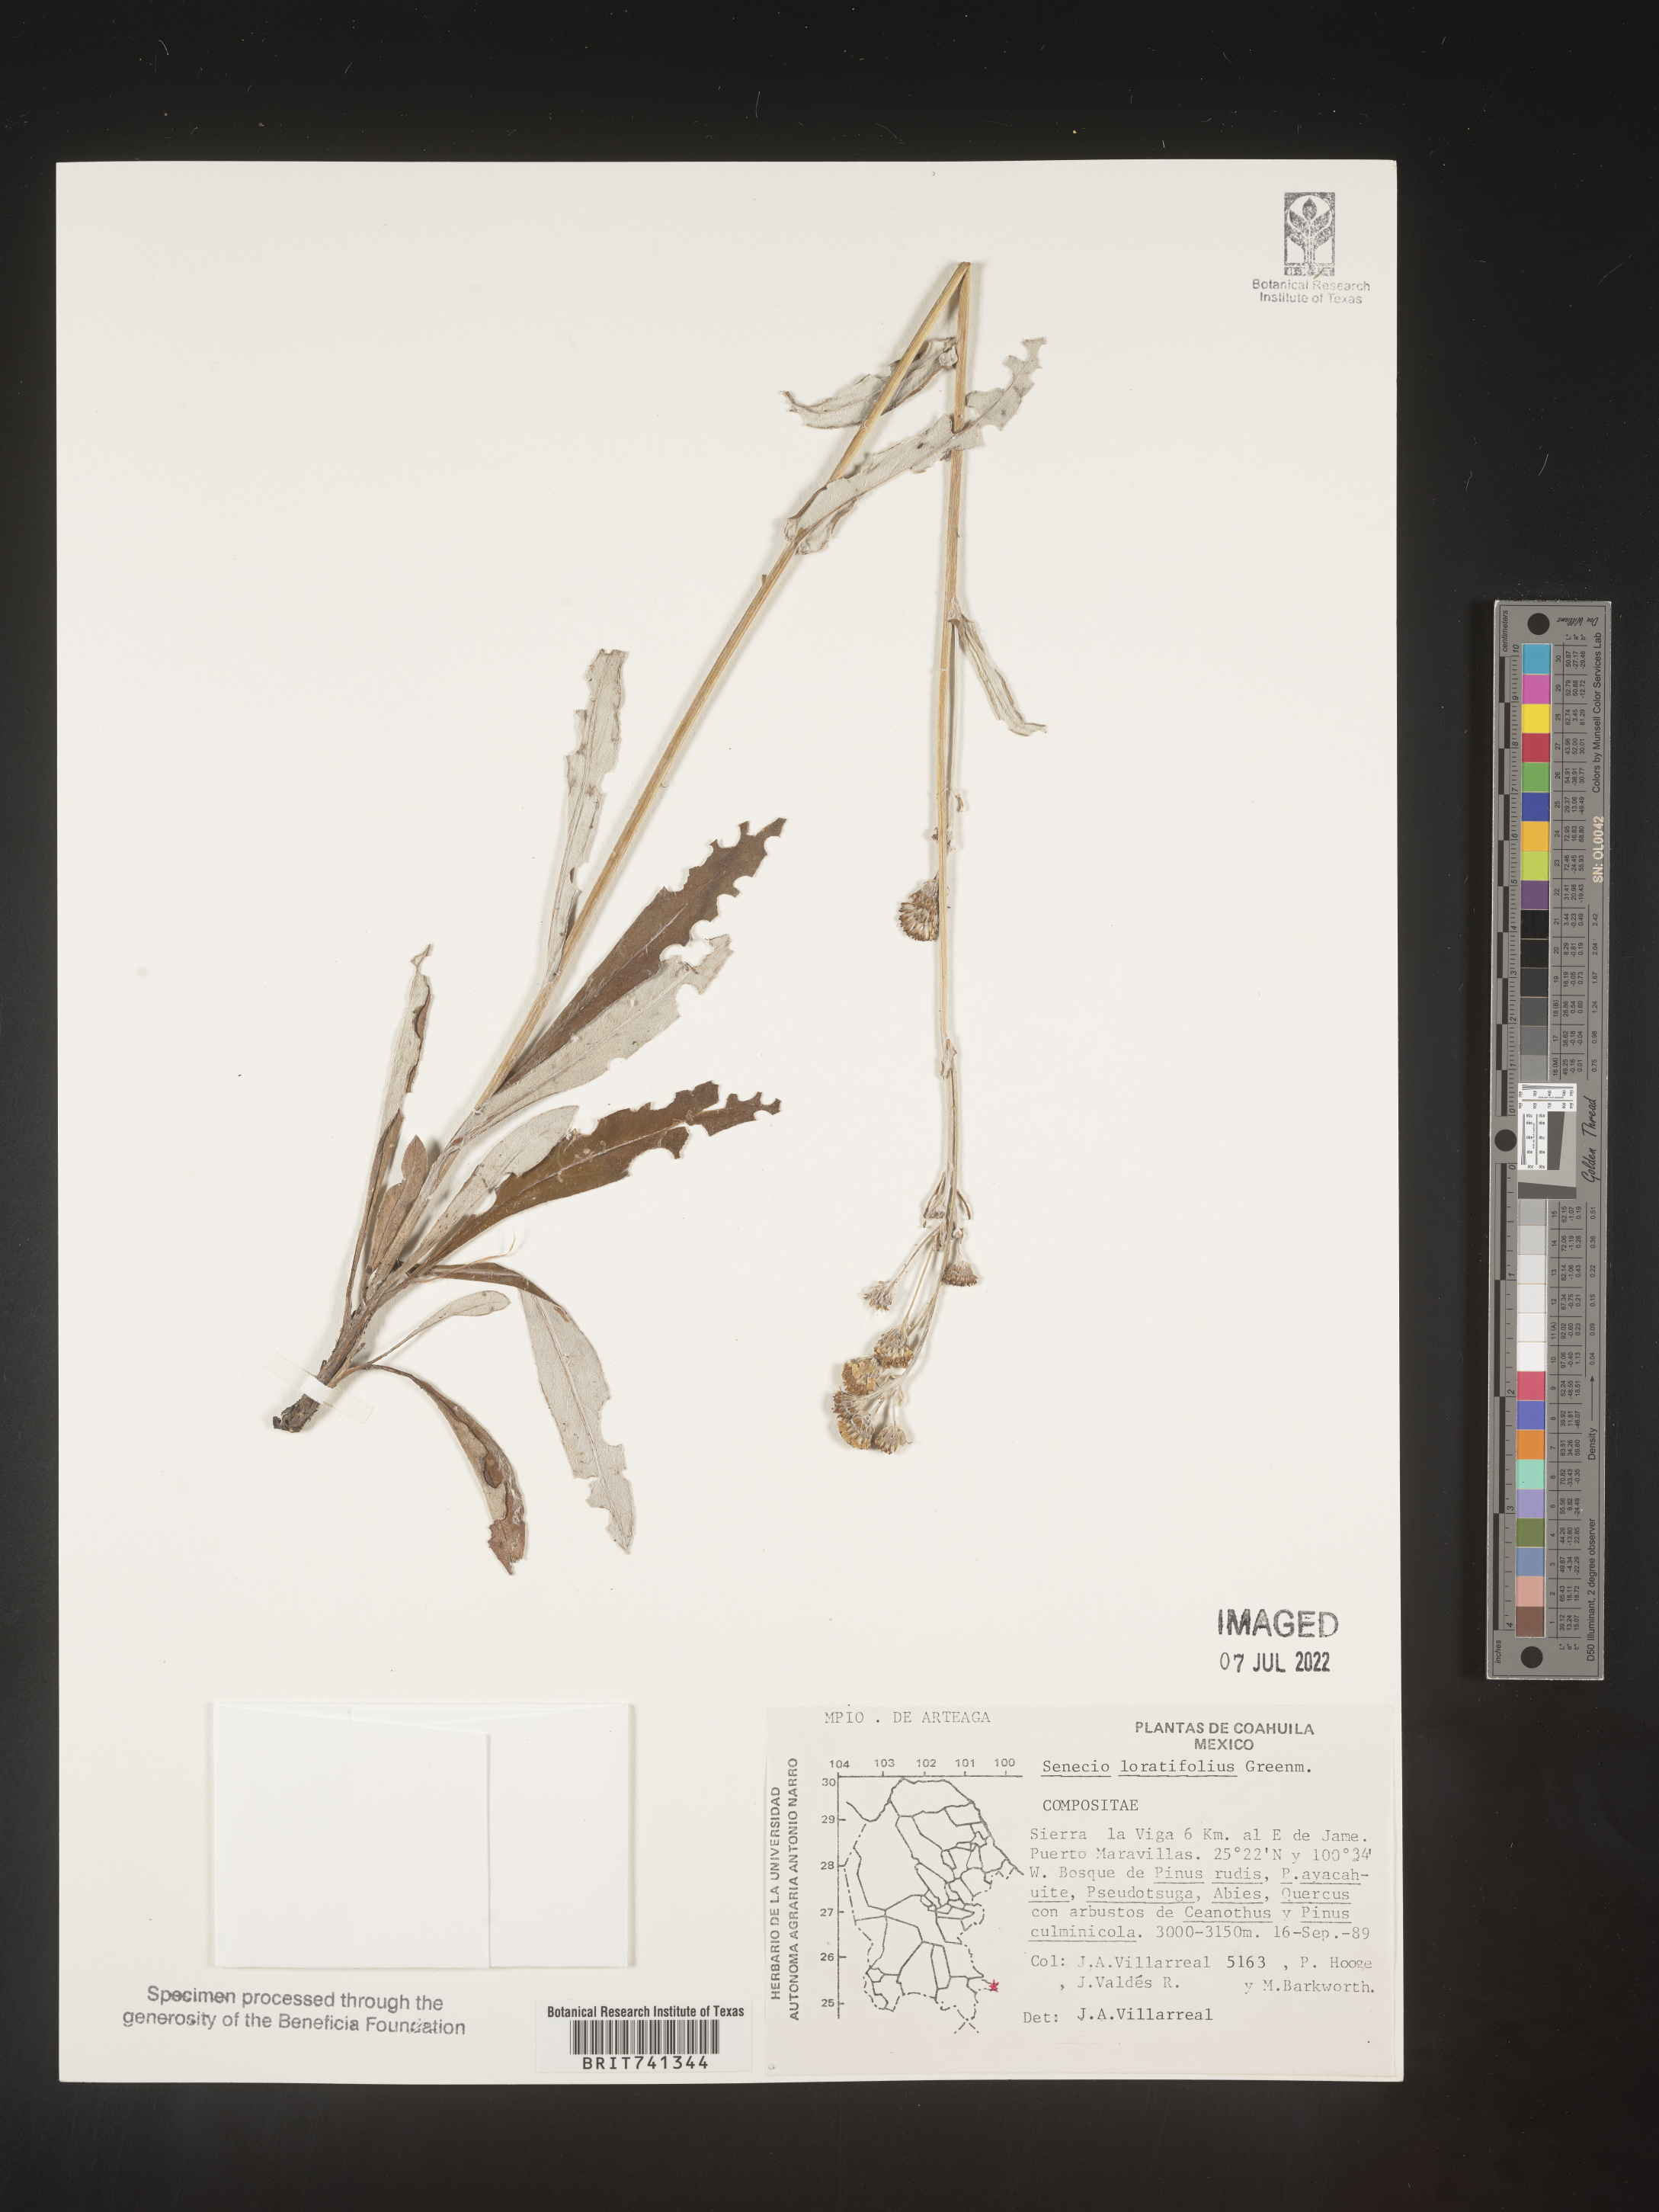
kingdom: Plantae
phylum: Tracheophyta
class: Magnoliopsida
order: Asterales
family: Asteraceae
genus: Packera
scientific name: Packera loratifolia
